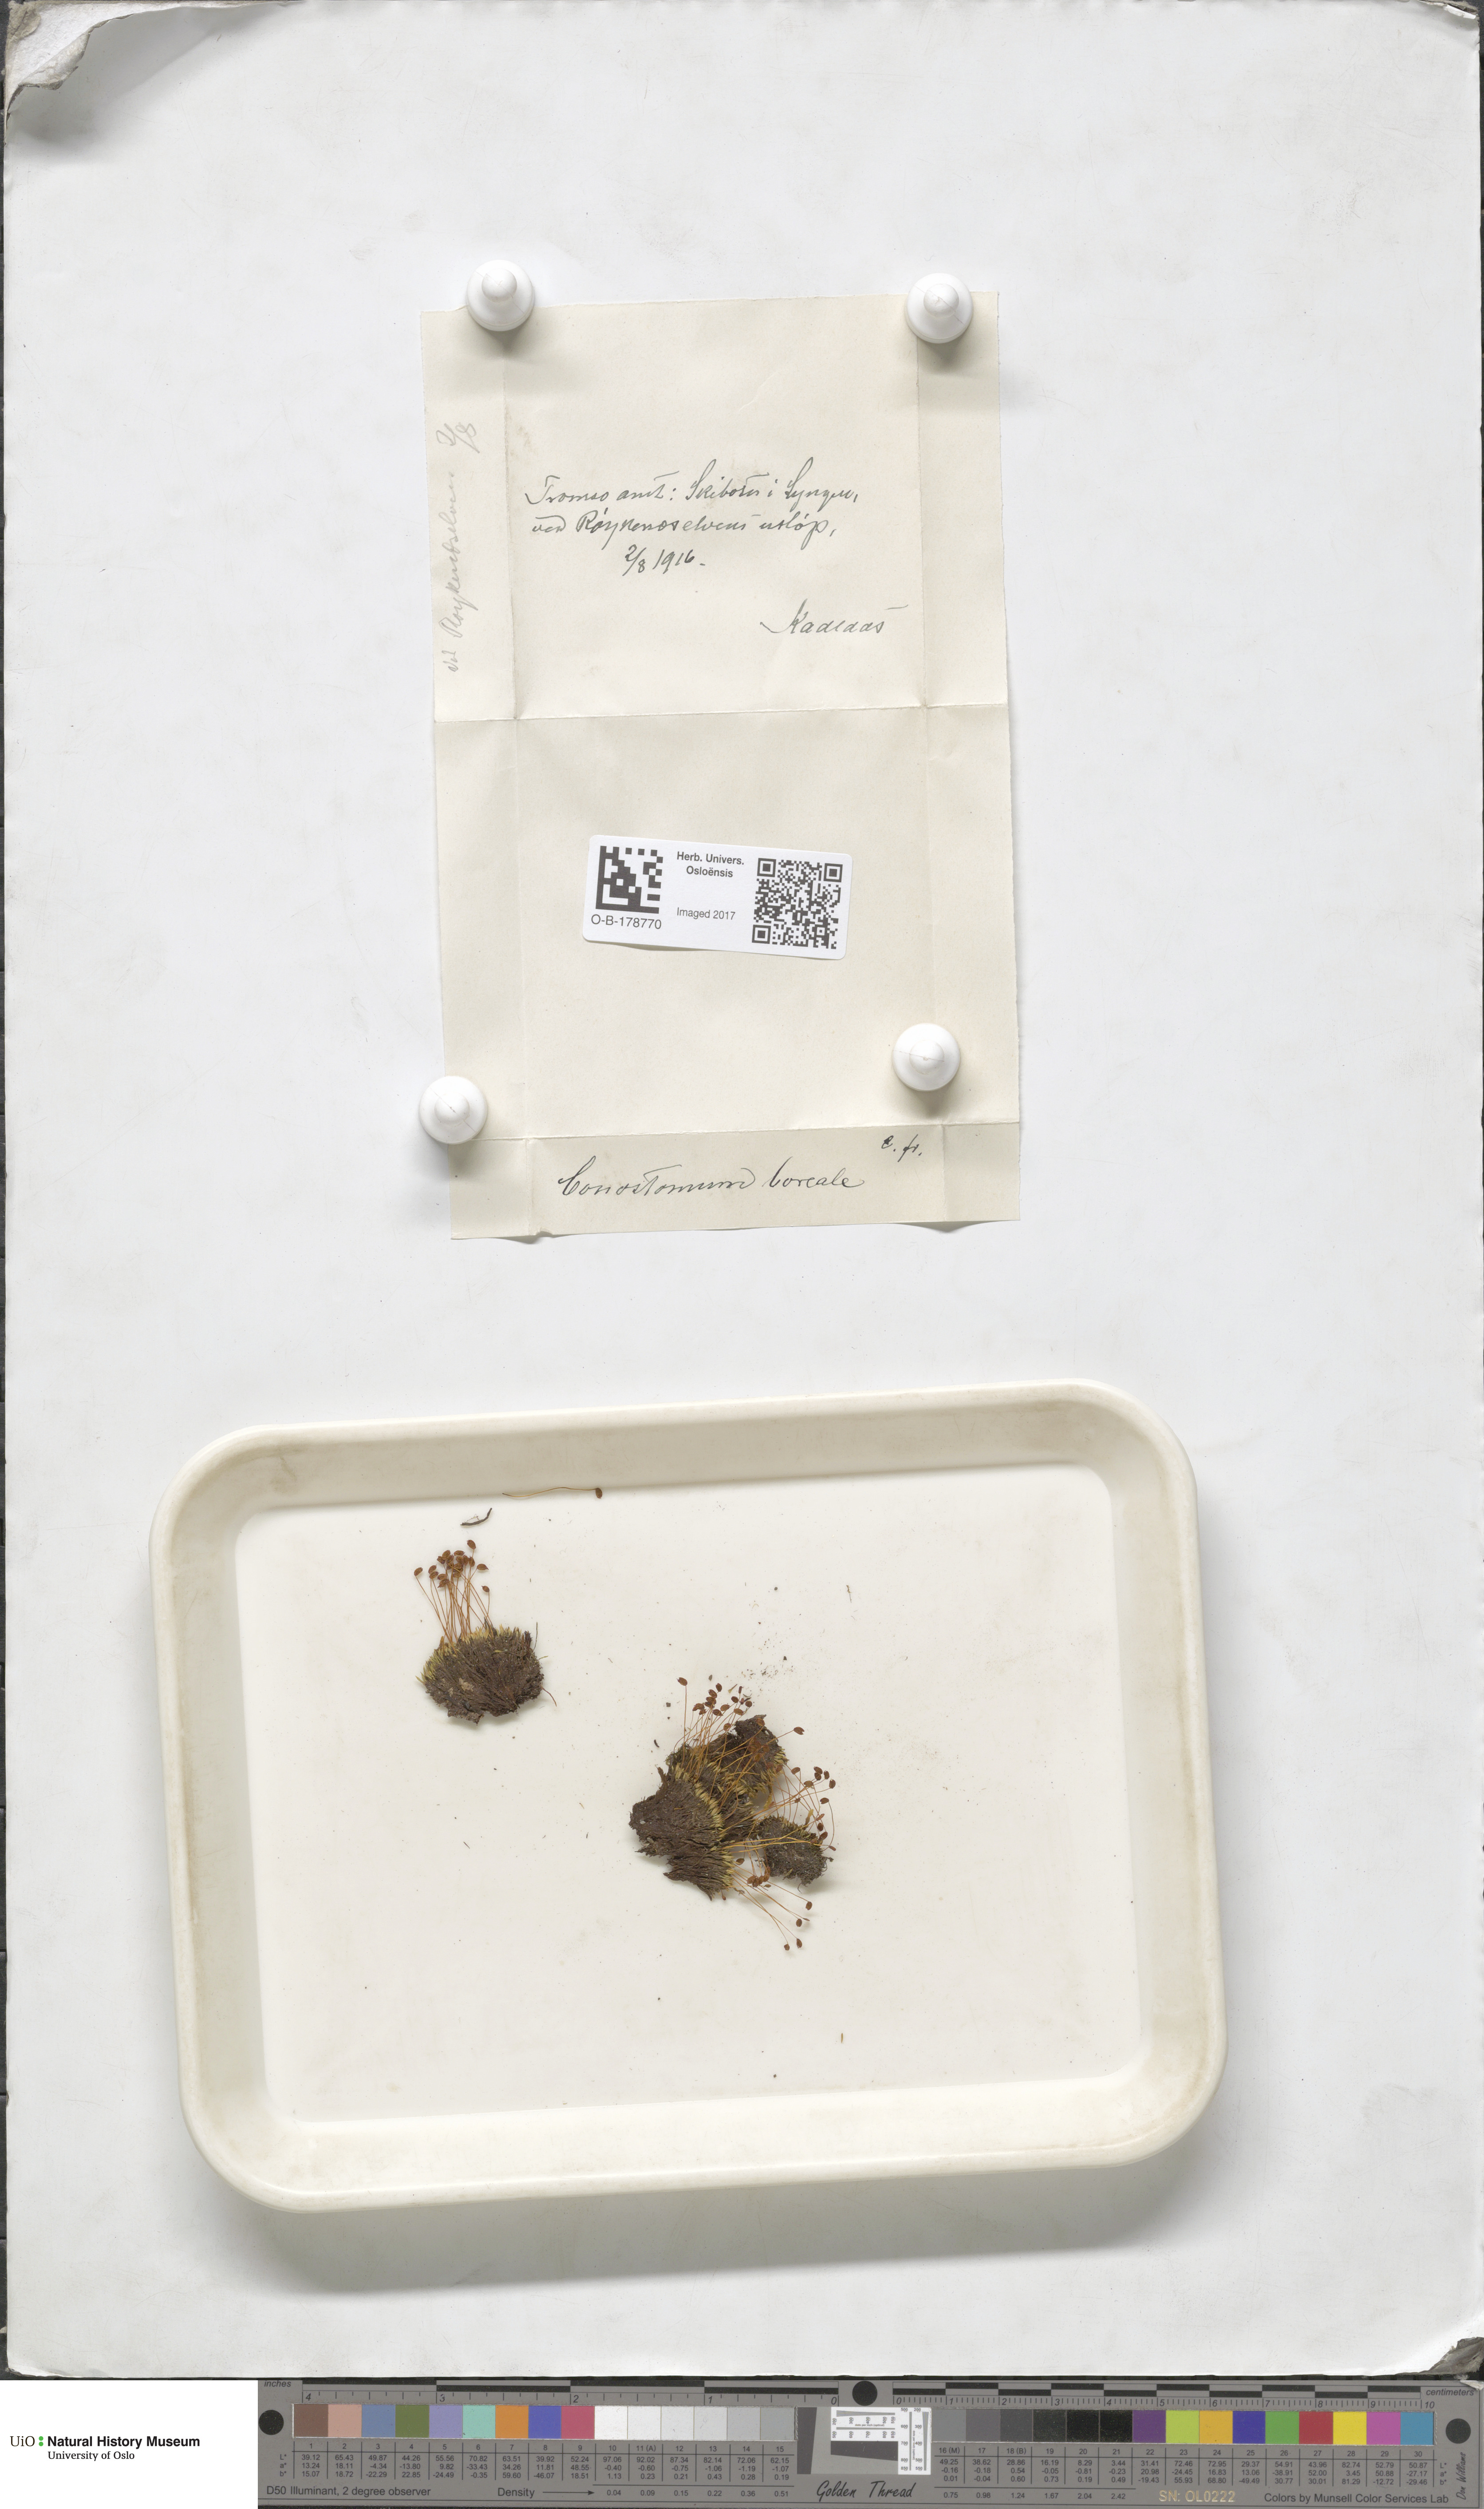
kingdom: Plantae
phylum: Bryophyta
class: Bryopsida
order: Bartramiales
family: Bartramiaceae
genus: Conostomum
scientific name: Conostomum tetragonum
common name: Helmet moss
